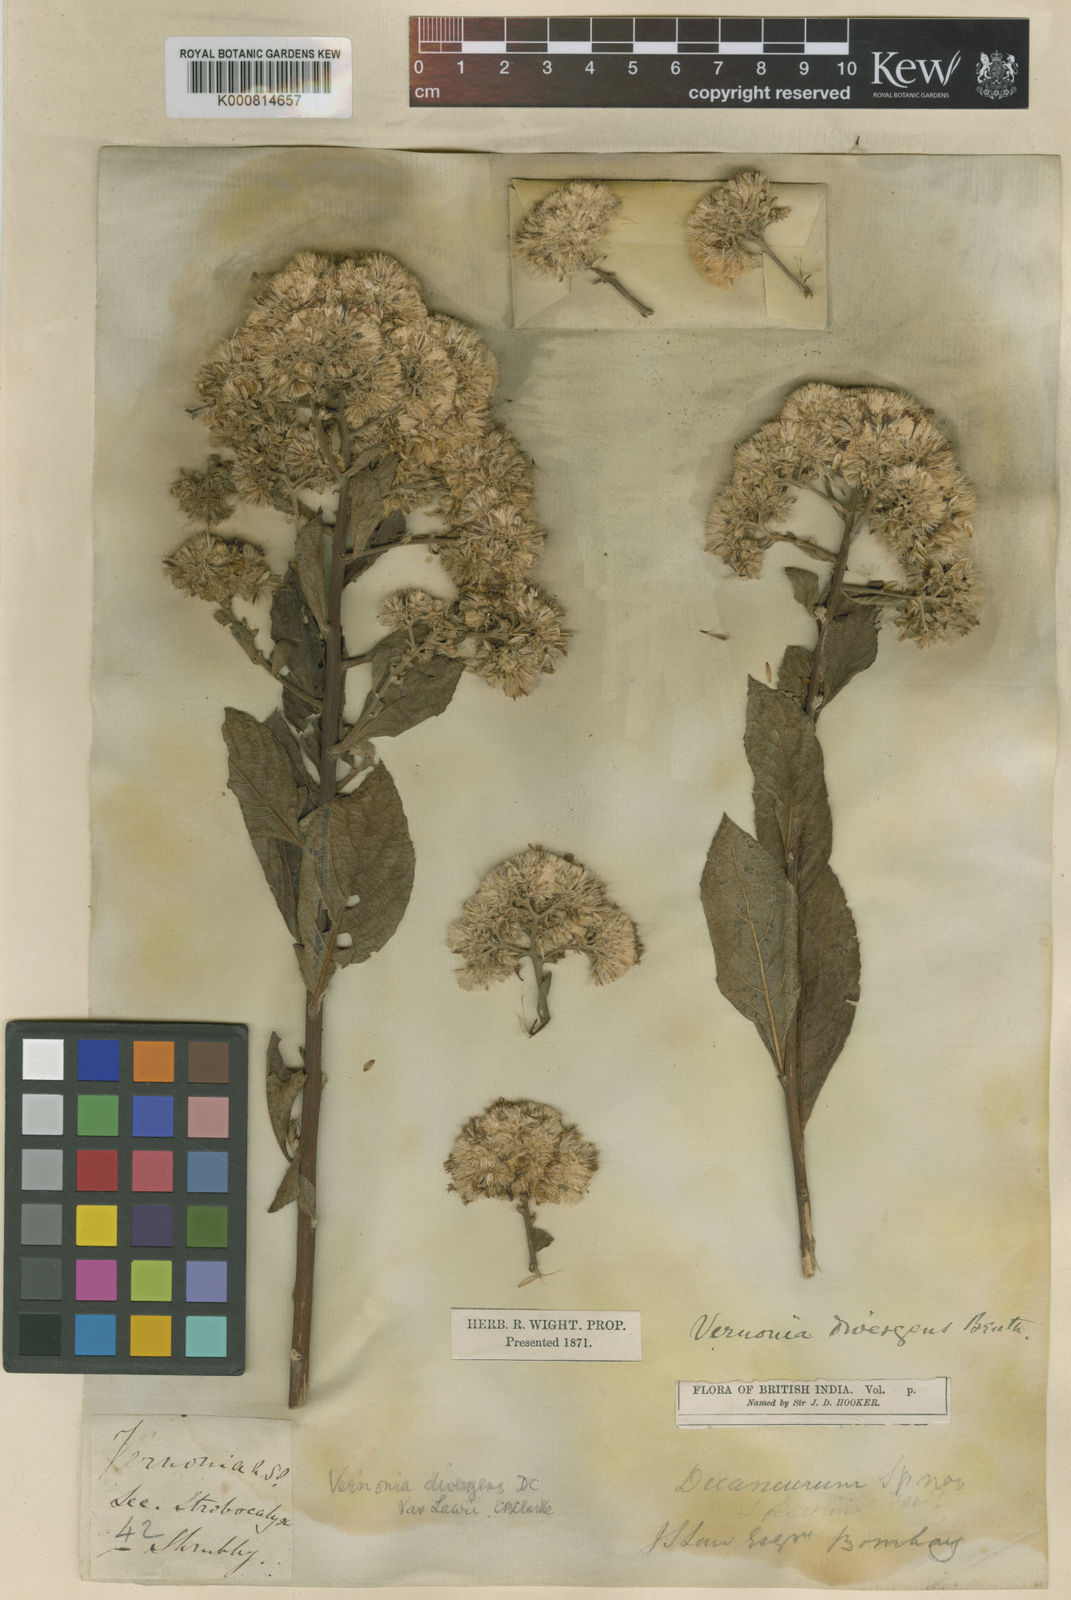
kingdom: Plantae
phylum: Tracheophyta
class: Magnoliopsida
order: Asterales
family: Asteraceae
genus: Vernonia
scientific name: Vernonia
